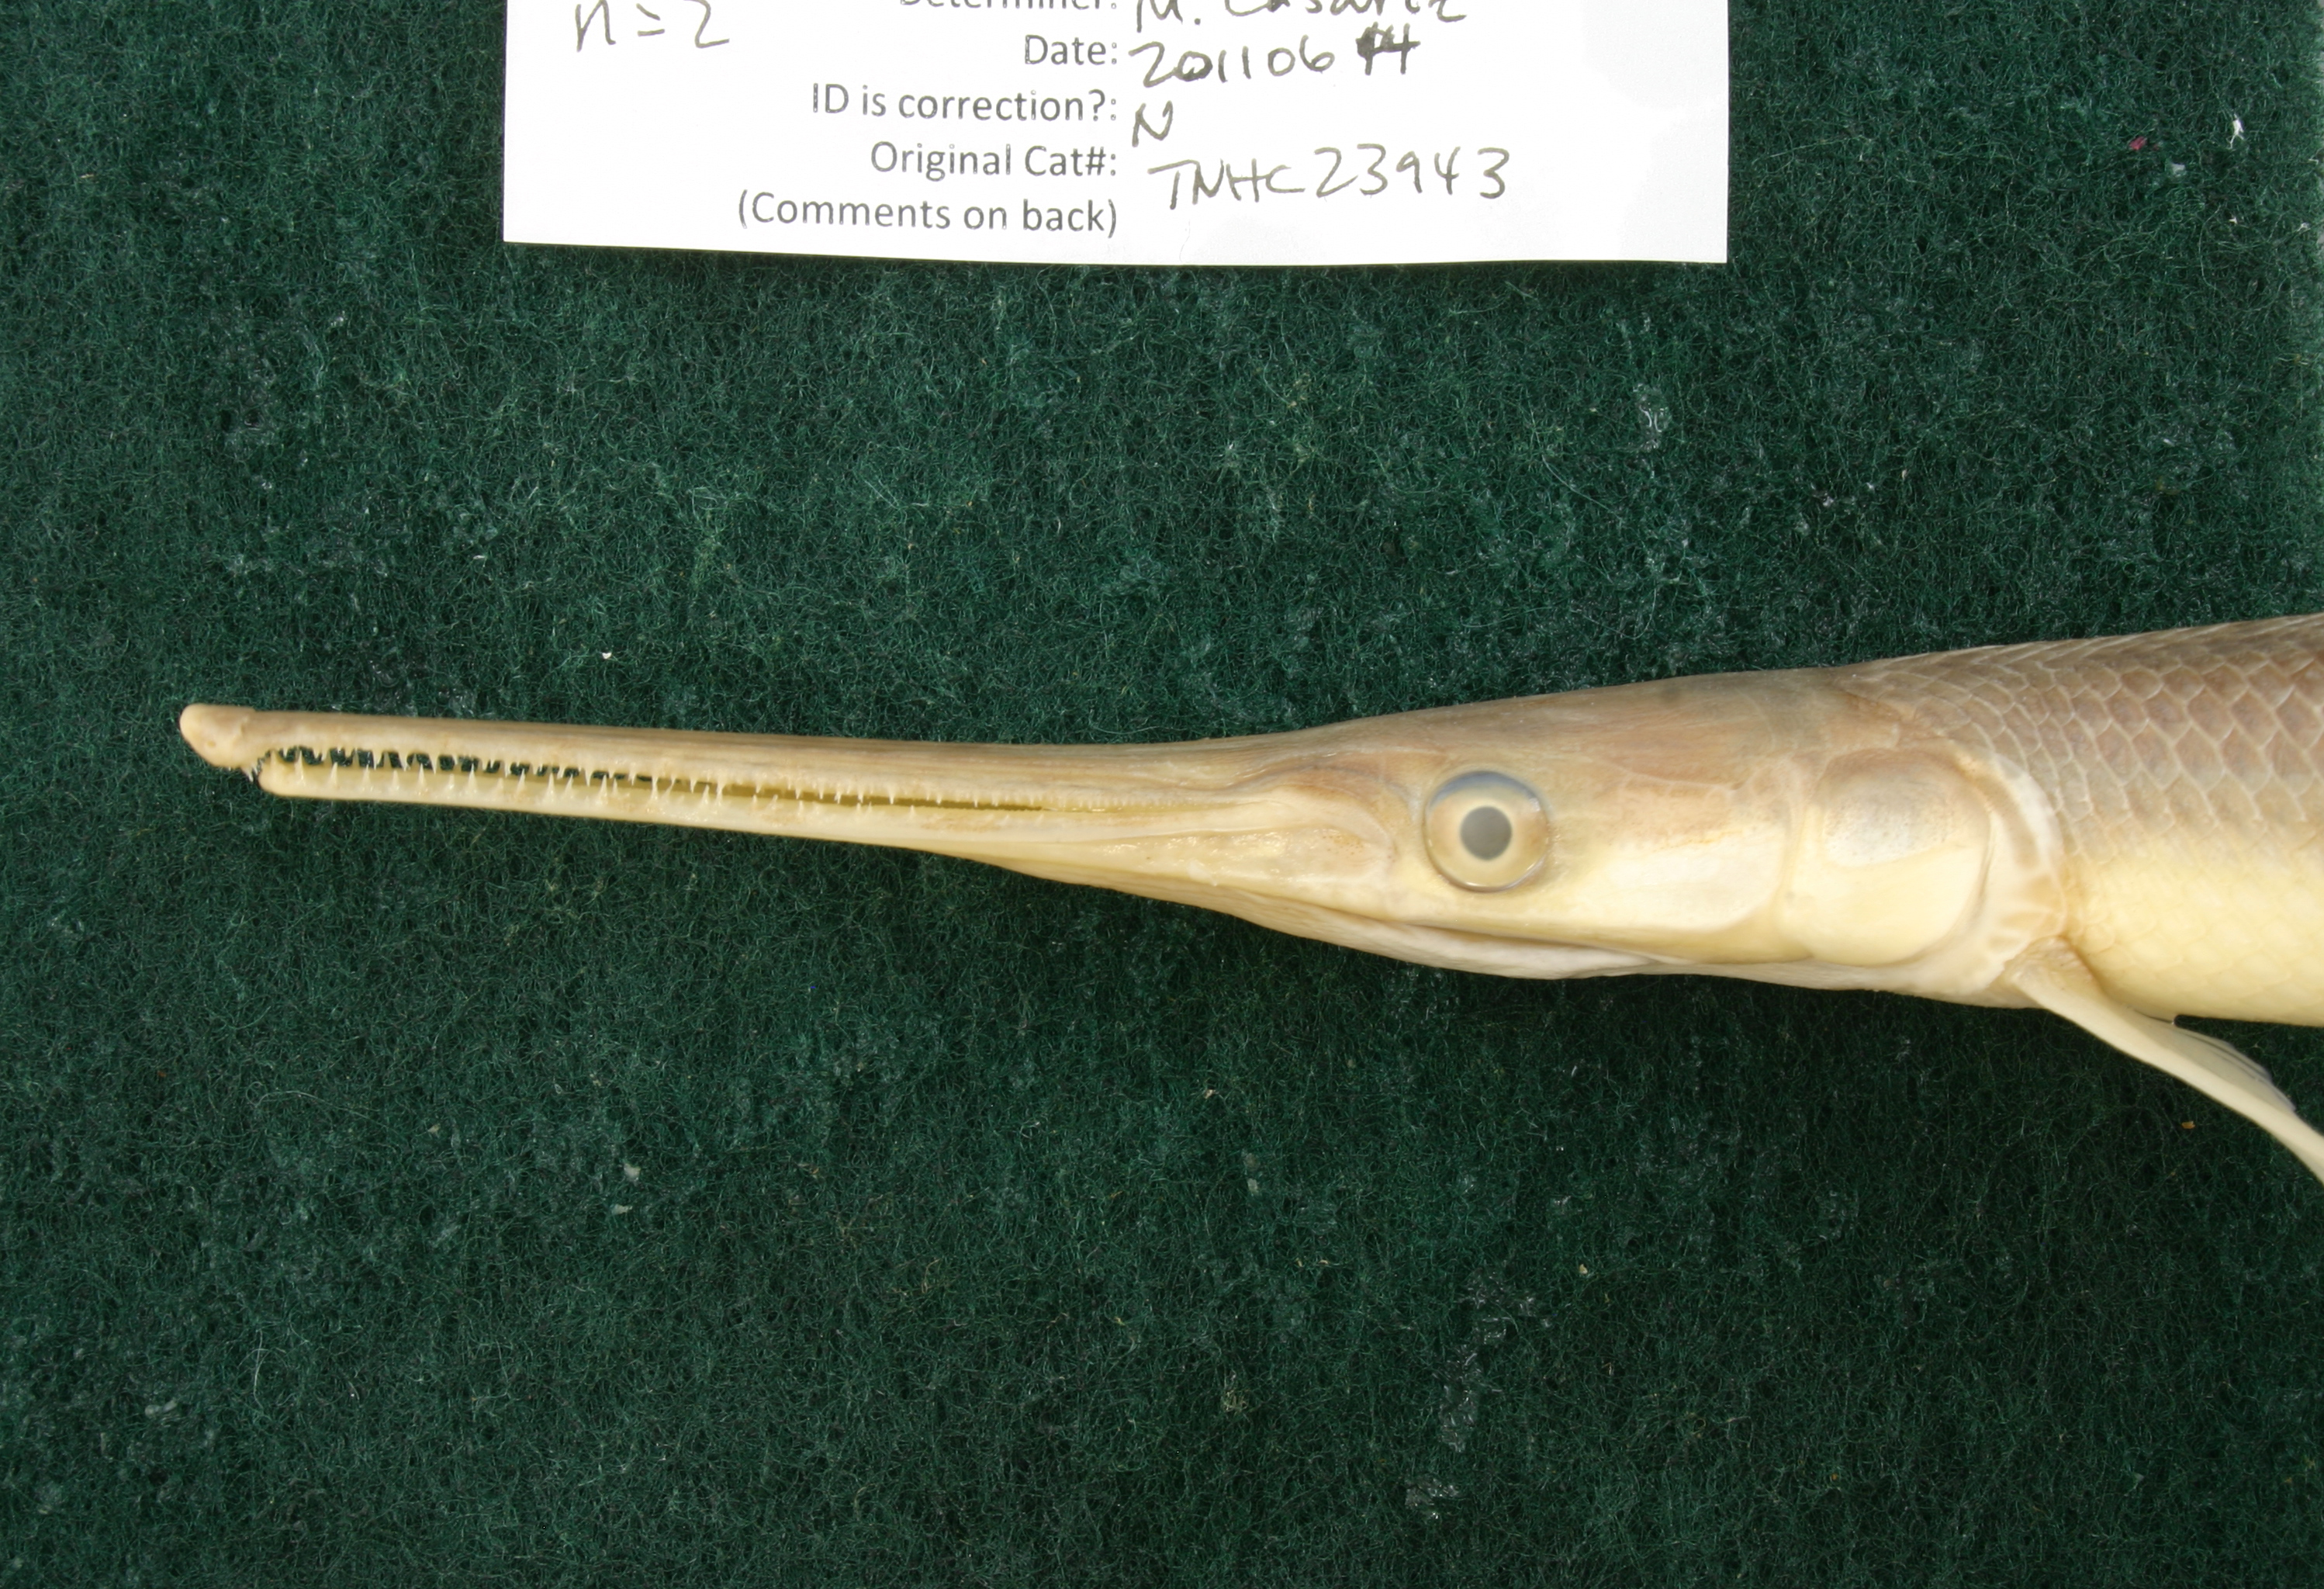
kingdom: Animalia
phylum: Chordata
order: Lepisosteiformes
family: Lepisosteidae
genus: Lepisosteus
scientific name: Lepisosteus osseus
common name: Longnose gar
